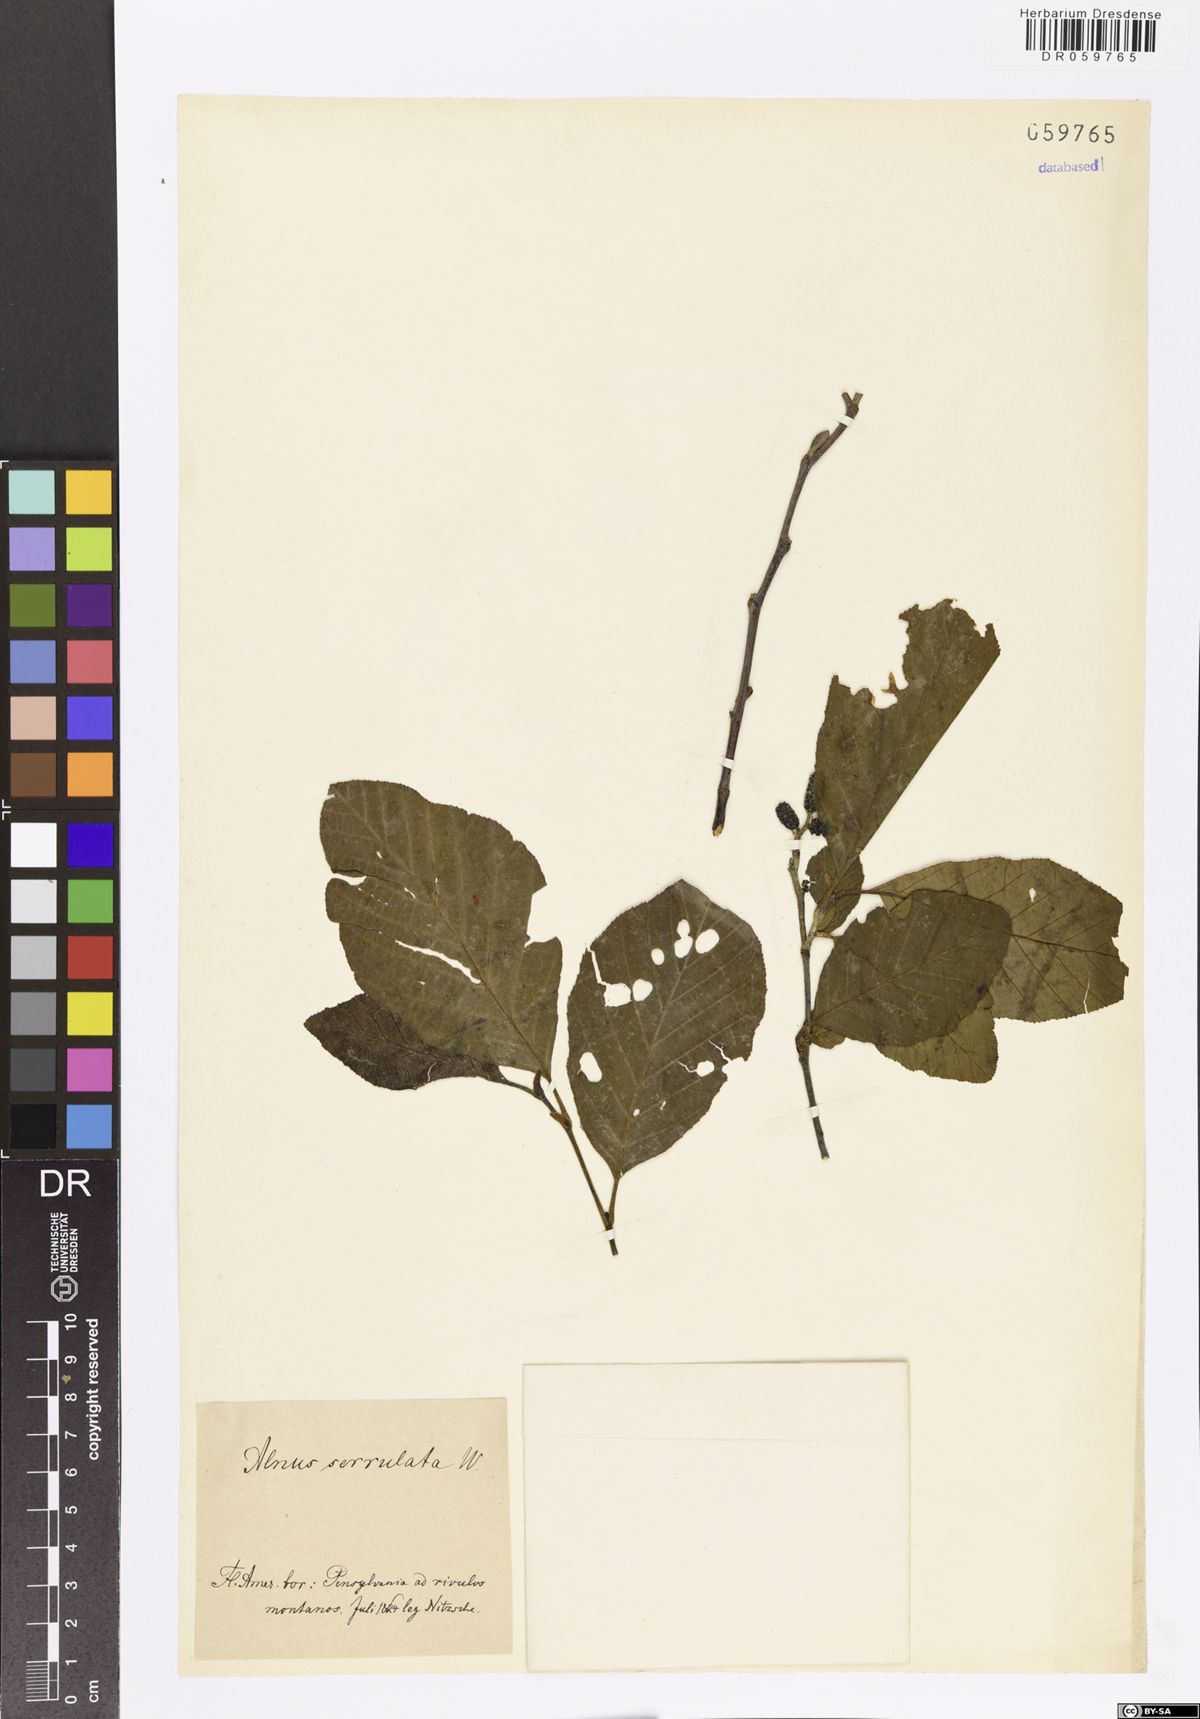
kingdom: Plantae
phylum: Tracheophyta
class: Magnoliopsida
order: Fagales
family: Betulaceae
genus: Alnus
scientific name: Alnus serrulata
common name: Hazel alder
